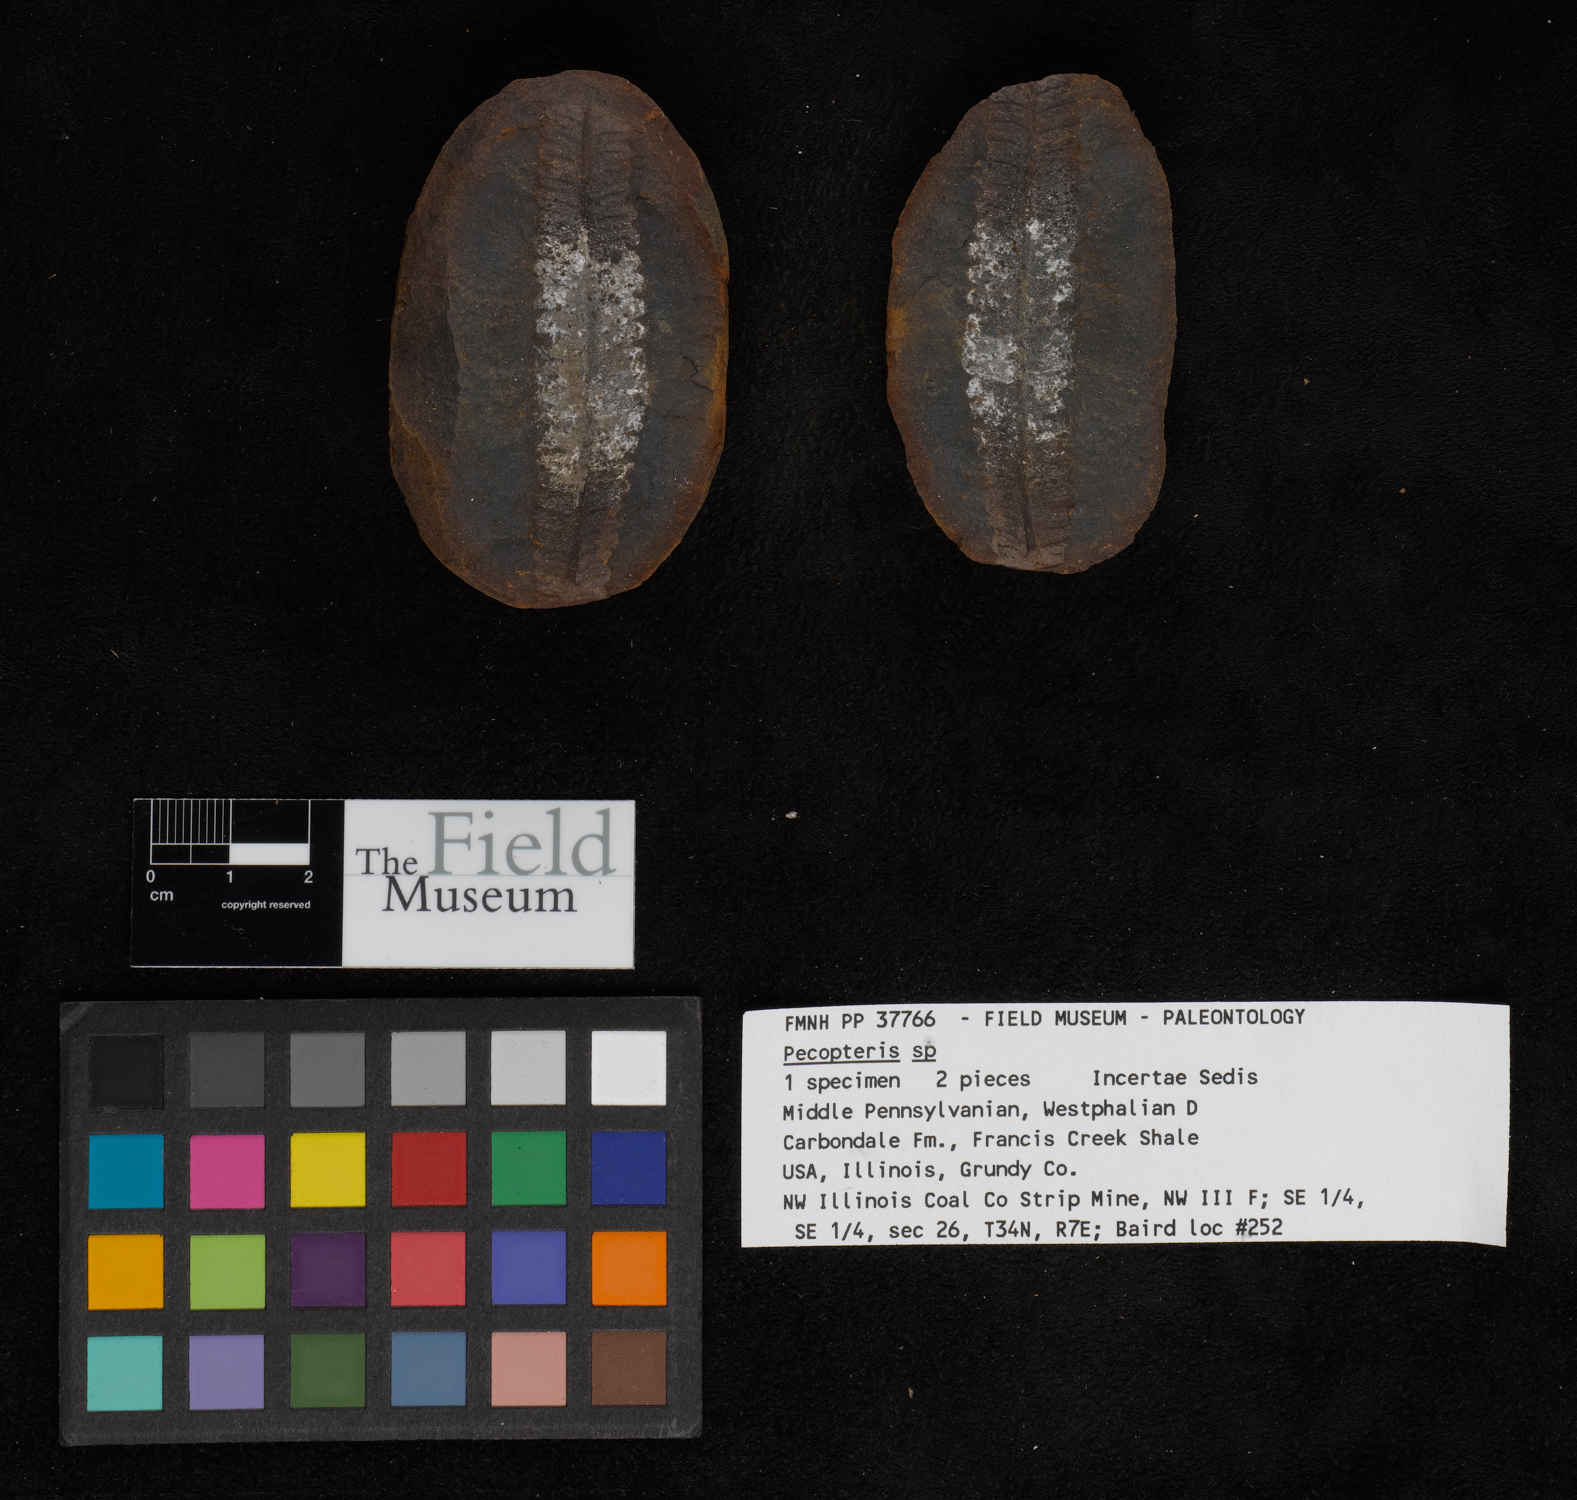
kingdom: Plantae
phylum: Tracheophyta
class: Polypodiopsida
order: Marattiales
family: Asterothecaceae
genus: Pecopteris
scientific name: Pecopteris
